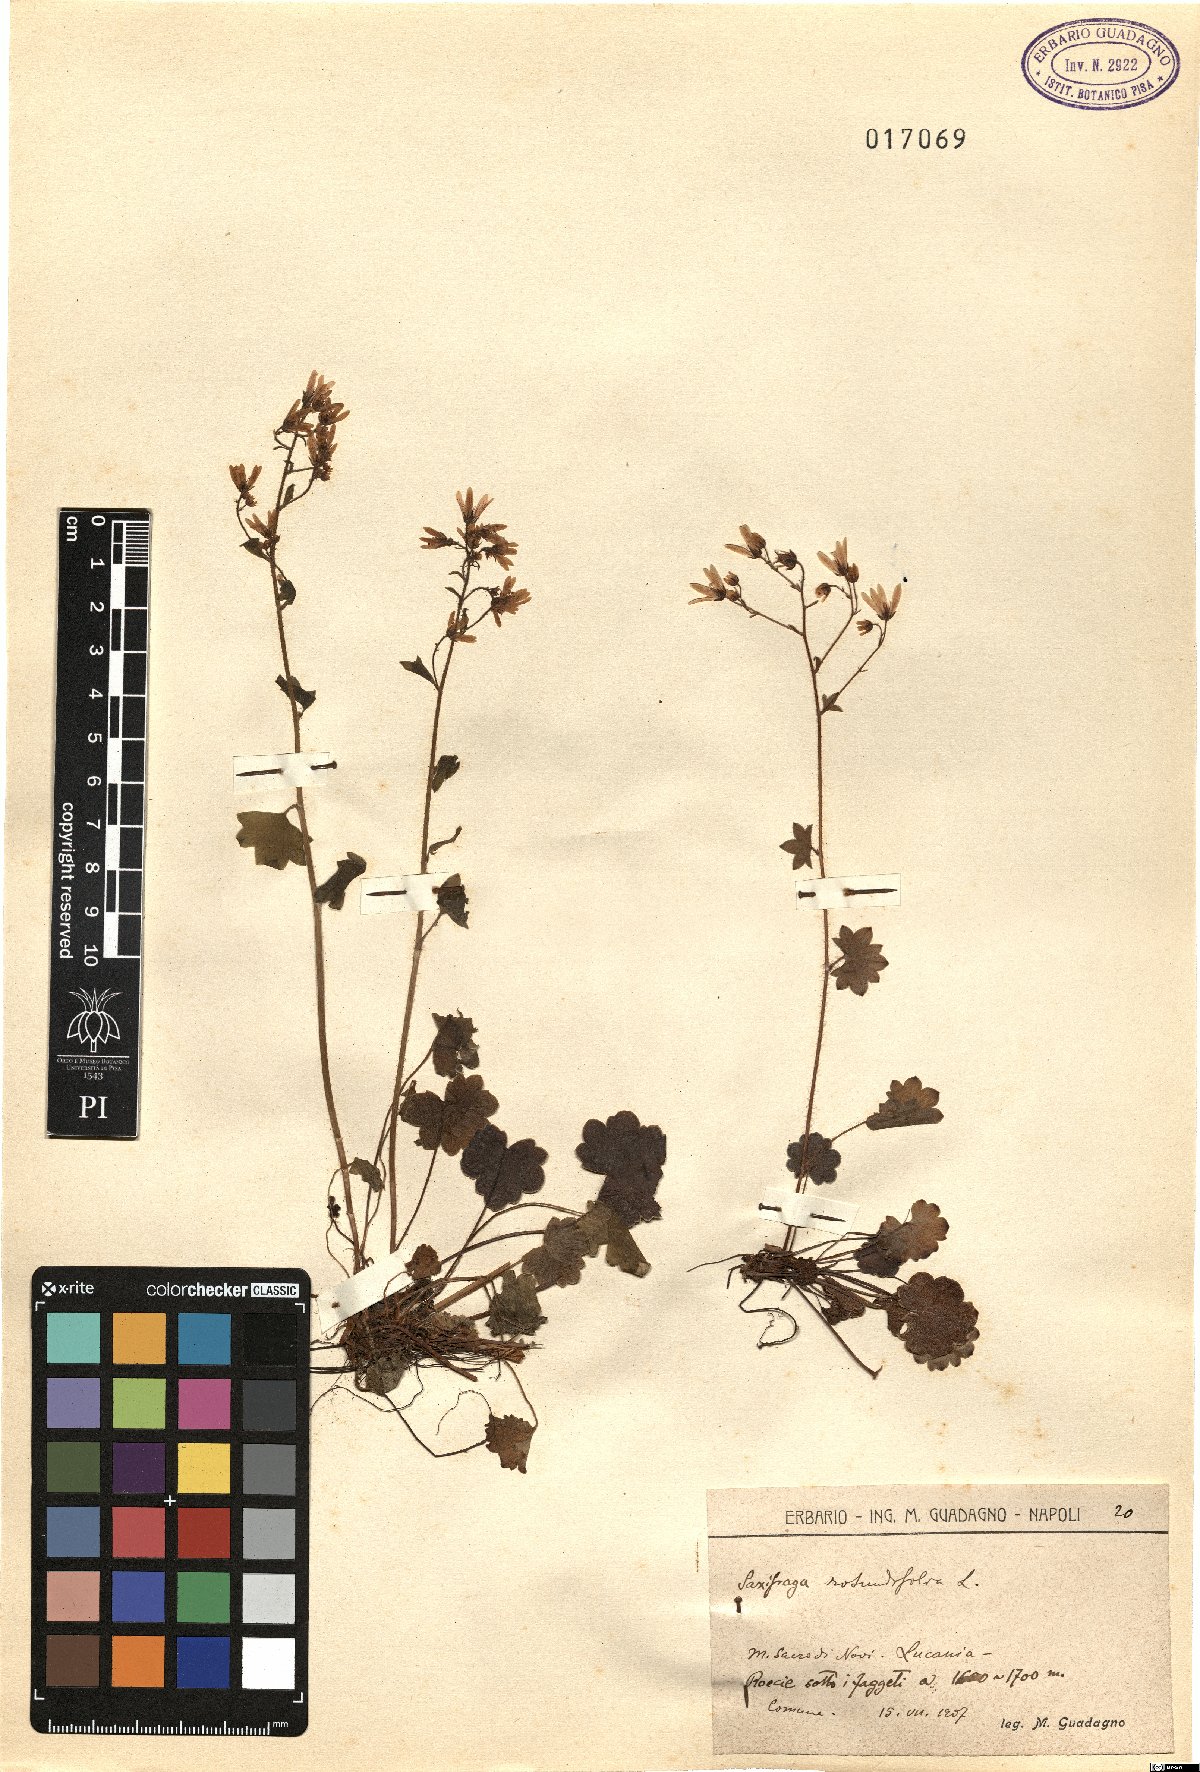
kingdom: Plantae
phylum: Tracheophyta
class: Magnoliopsida
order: Saxifragales
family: Saxifragaceae
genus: Saxifraga
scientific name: Saxifraga rotundifolia
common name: Round-leaved saxifrage
